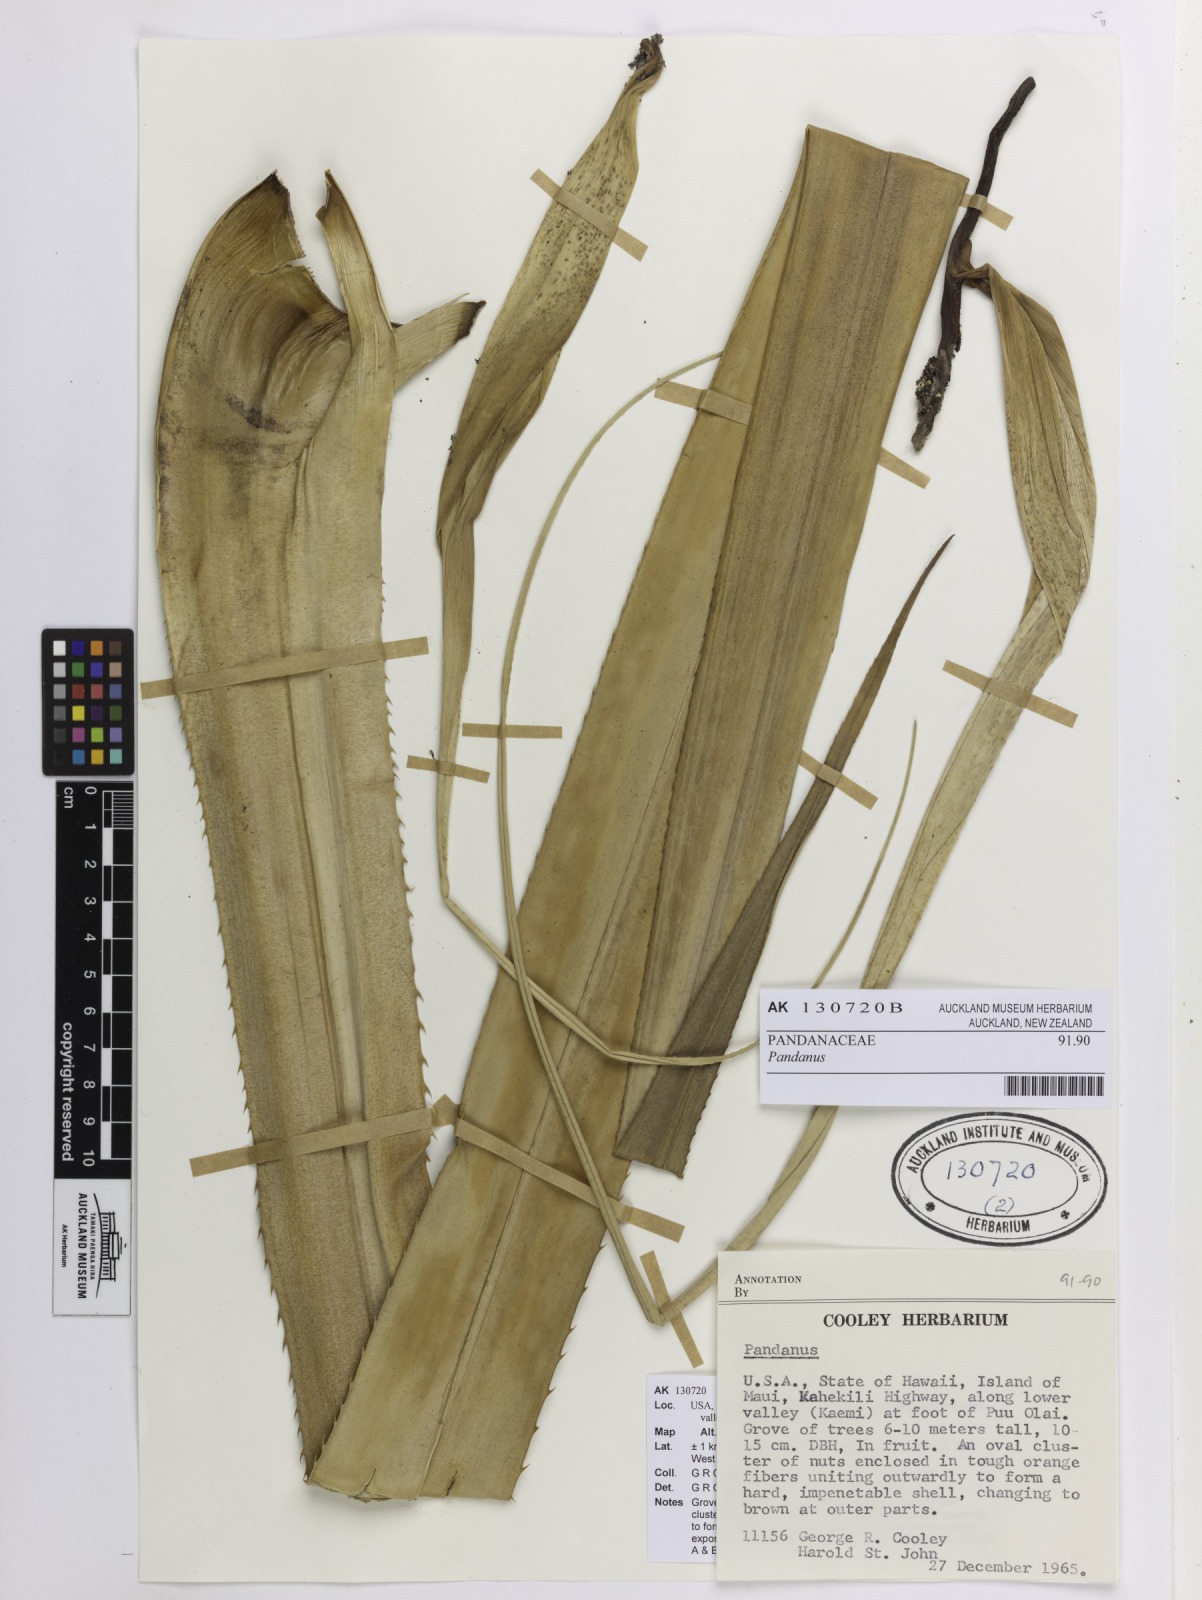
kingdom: Plantae
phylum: Tracheophyta
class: Liliopsida
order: Pandanales
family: Pandanaceae
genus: Pandanus
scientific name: Pandanus
